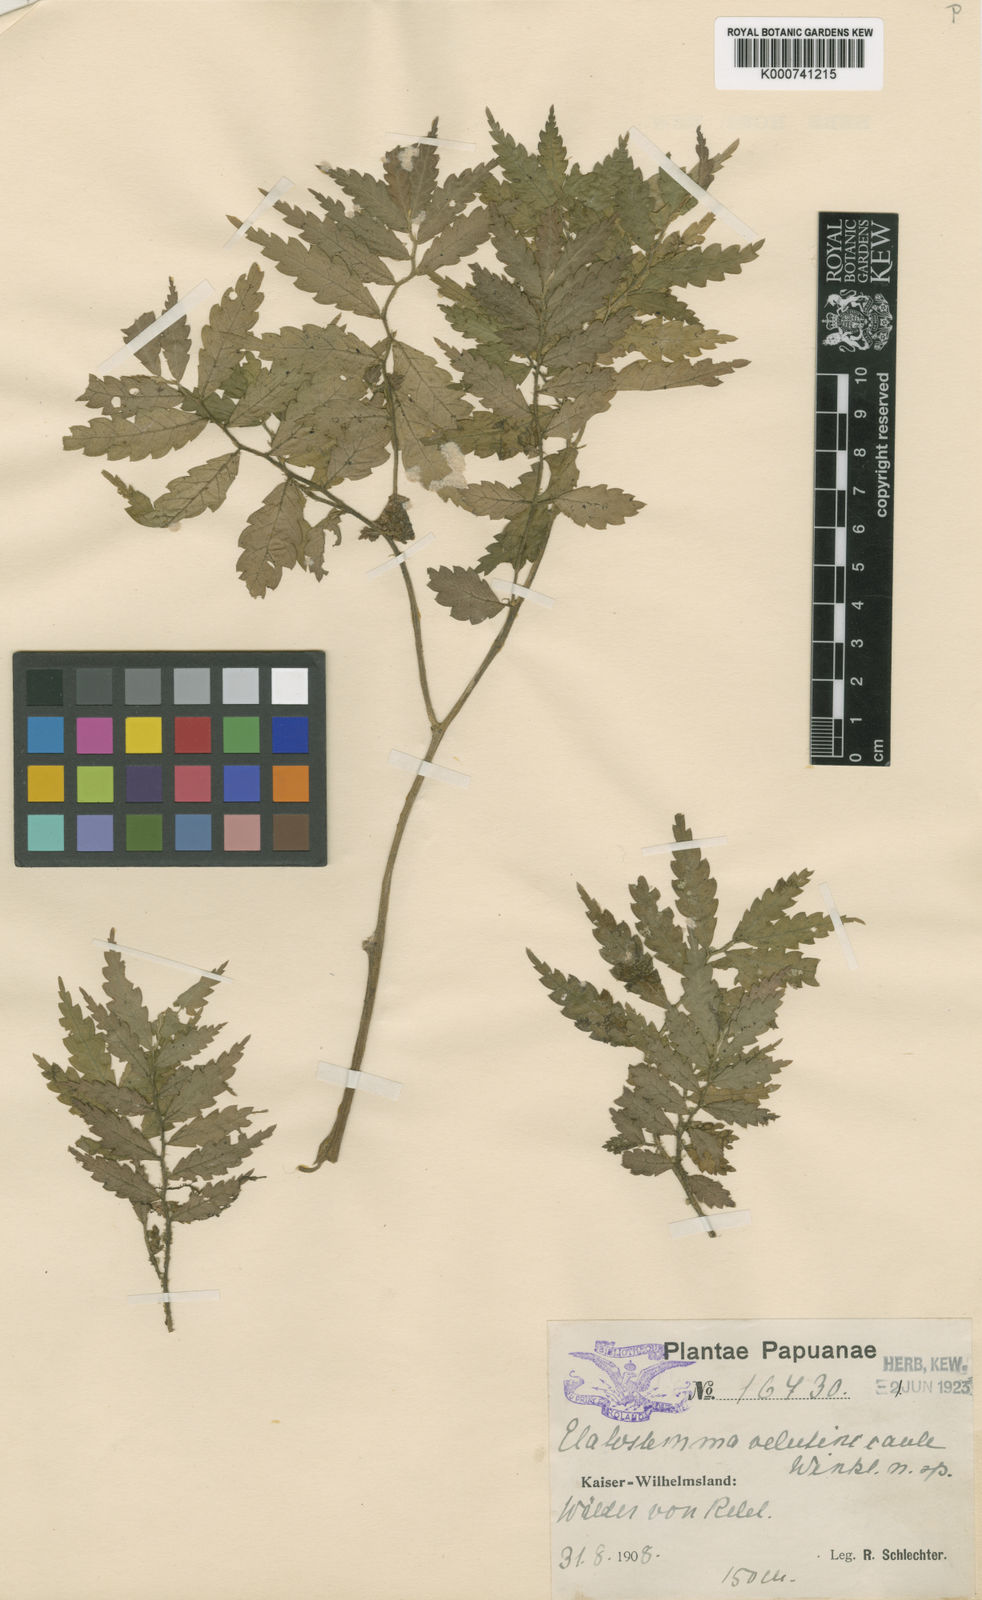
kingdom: Plantae
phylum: Tracheophyta
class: Magnoliopsida
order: Rosales
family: Urticaceae
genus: Elatostema
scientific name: Elatostema velutinicaule
